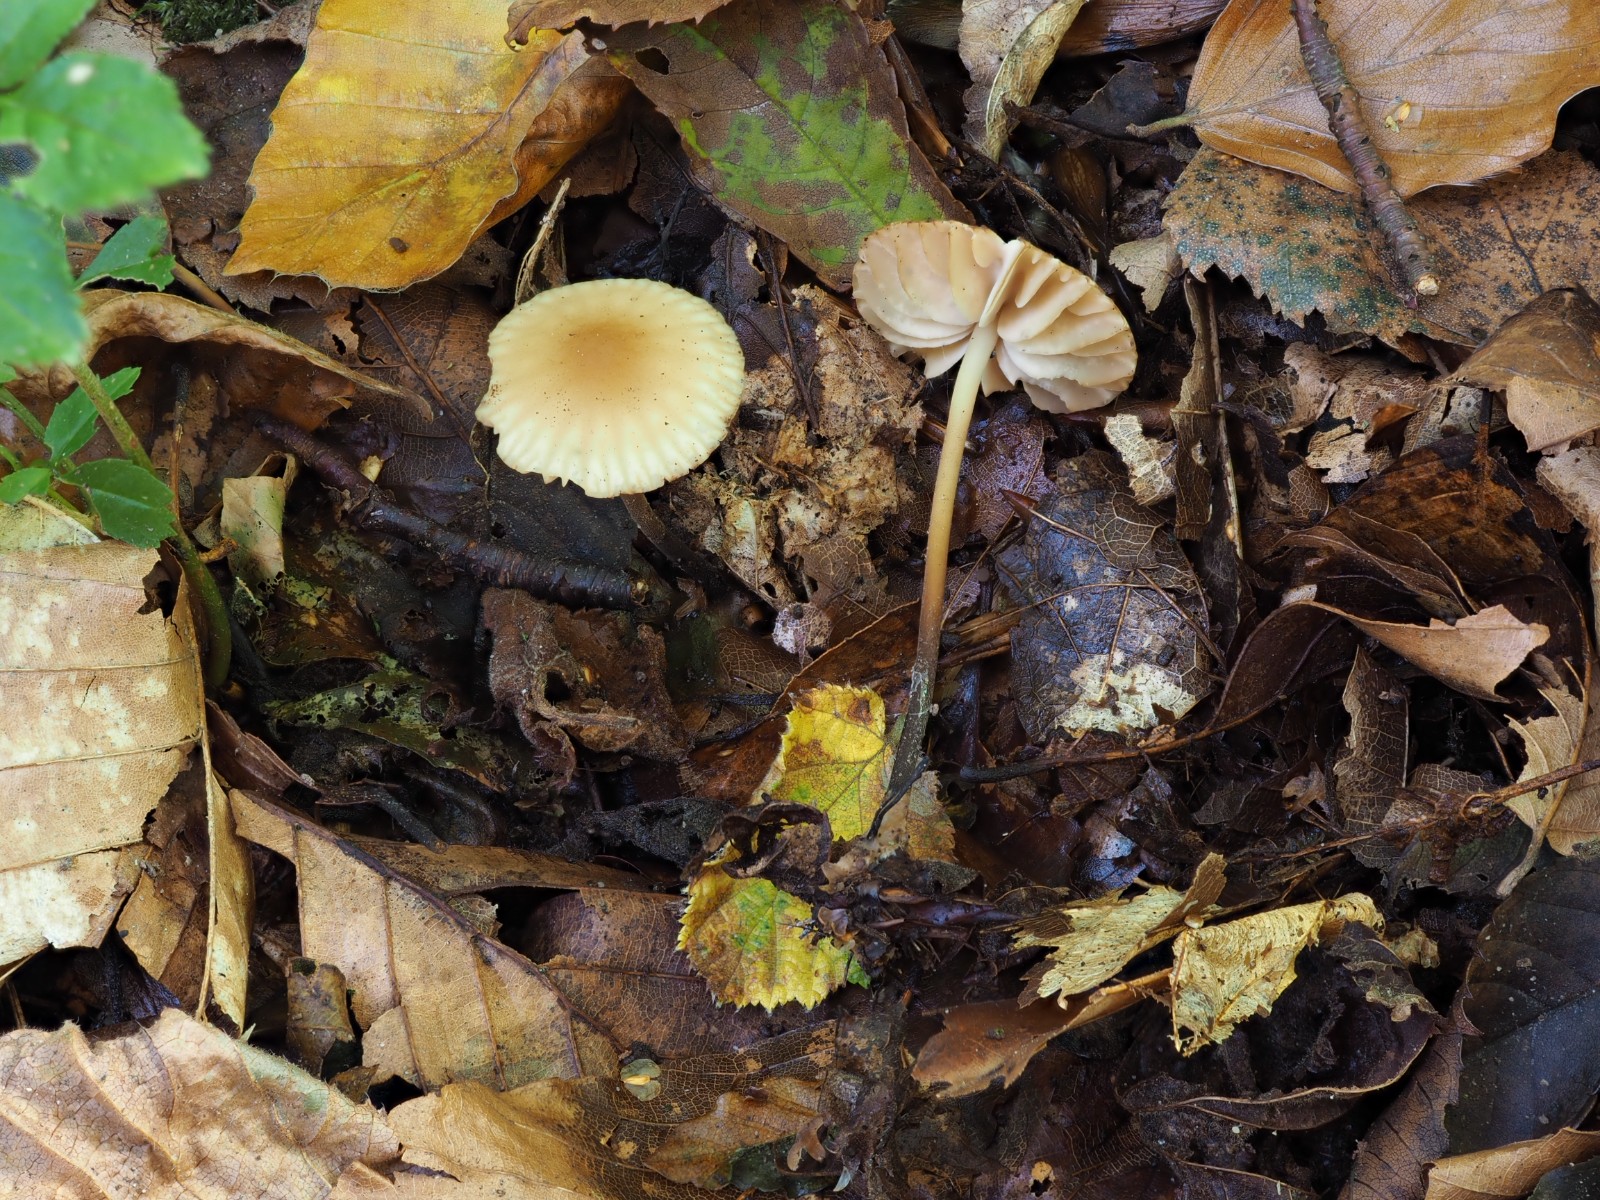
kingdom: Fungi
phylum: Basidiomycota
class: Agaricomycetes
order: Agaricales
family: Marasmiaceae
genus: Marasmius
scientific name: Marasmius torquescens
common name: filtfodet bruskhat
